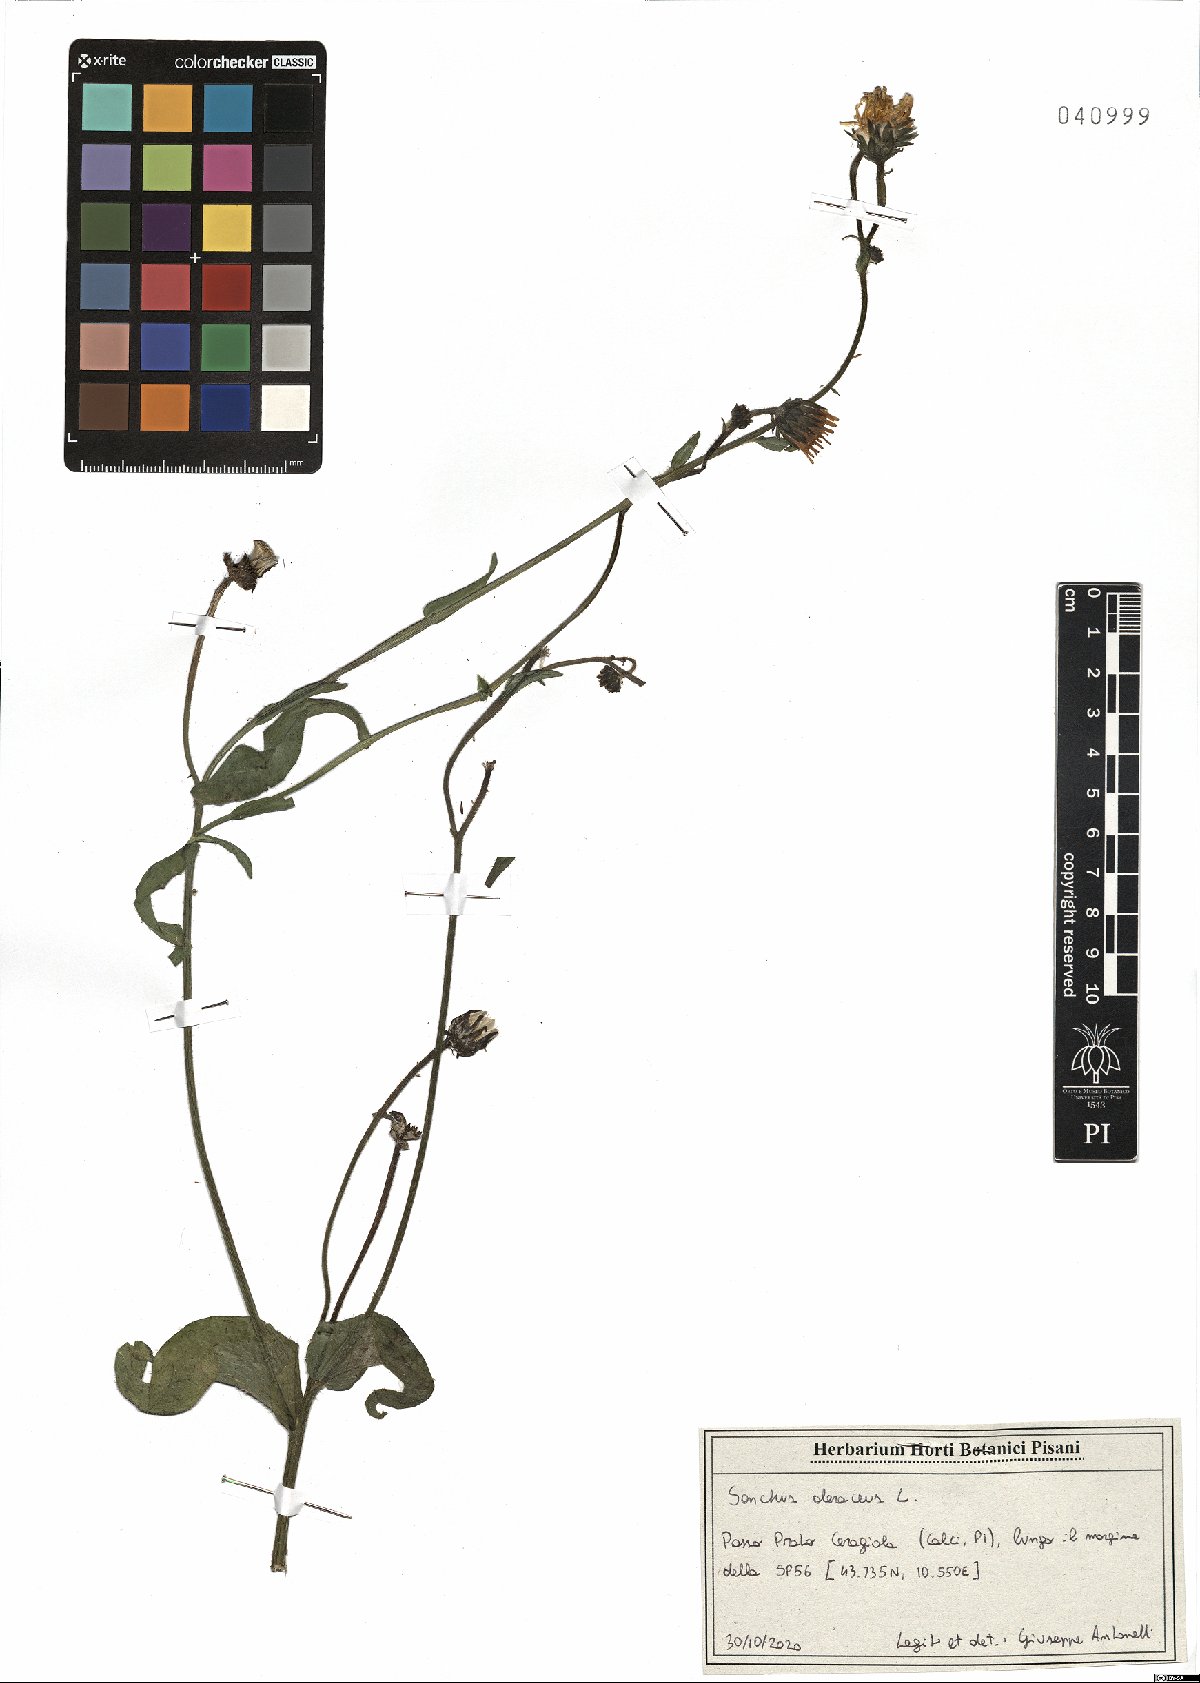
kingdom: Plantae
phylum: Tracheophyta
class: Magnoliopsida
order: Asterales
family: Asteraceae
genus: Sonchus
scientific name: Sonchus oleraceus
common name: Common sowthistle
